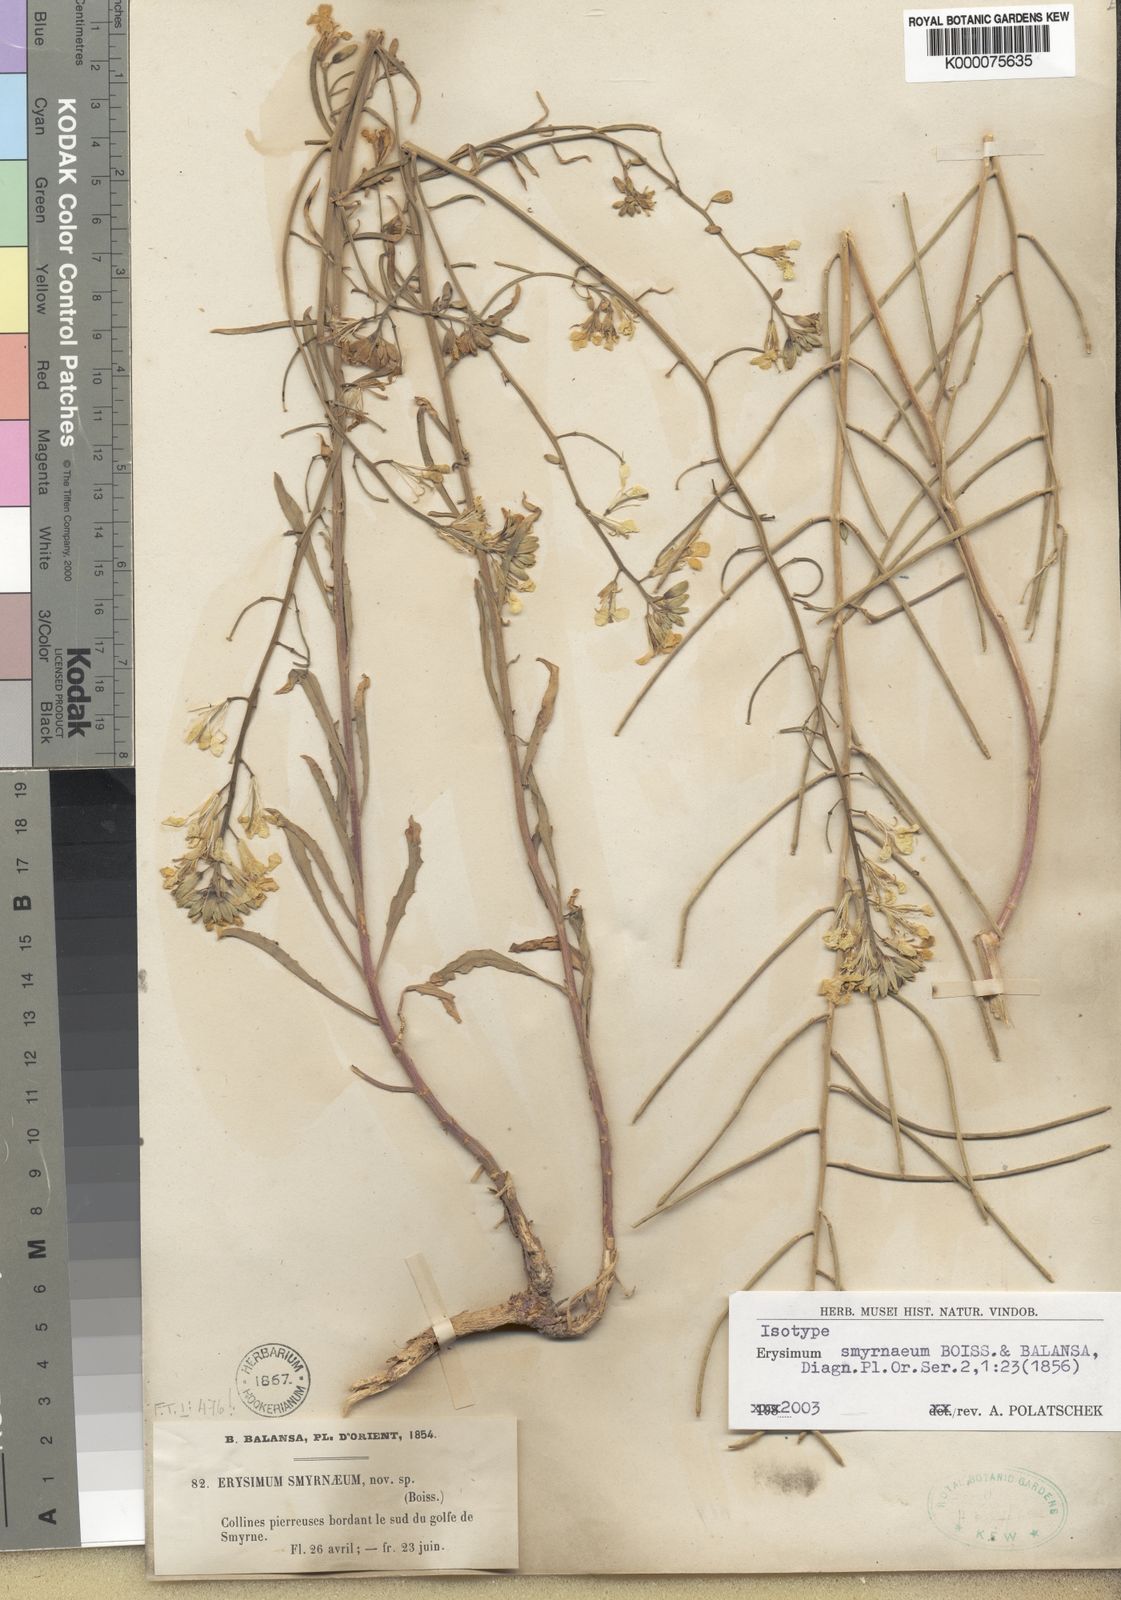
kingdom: Plantae
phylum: Tracheophyta
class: Magnoliopsida
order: Brassicales
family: Brassicaceae
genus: Erysimum
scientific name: Erysimum smyrnaeum
